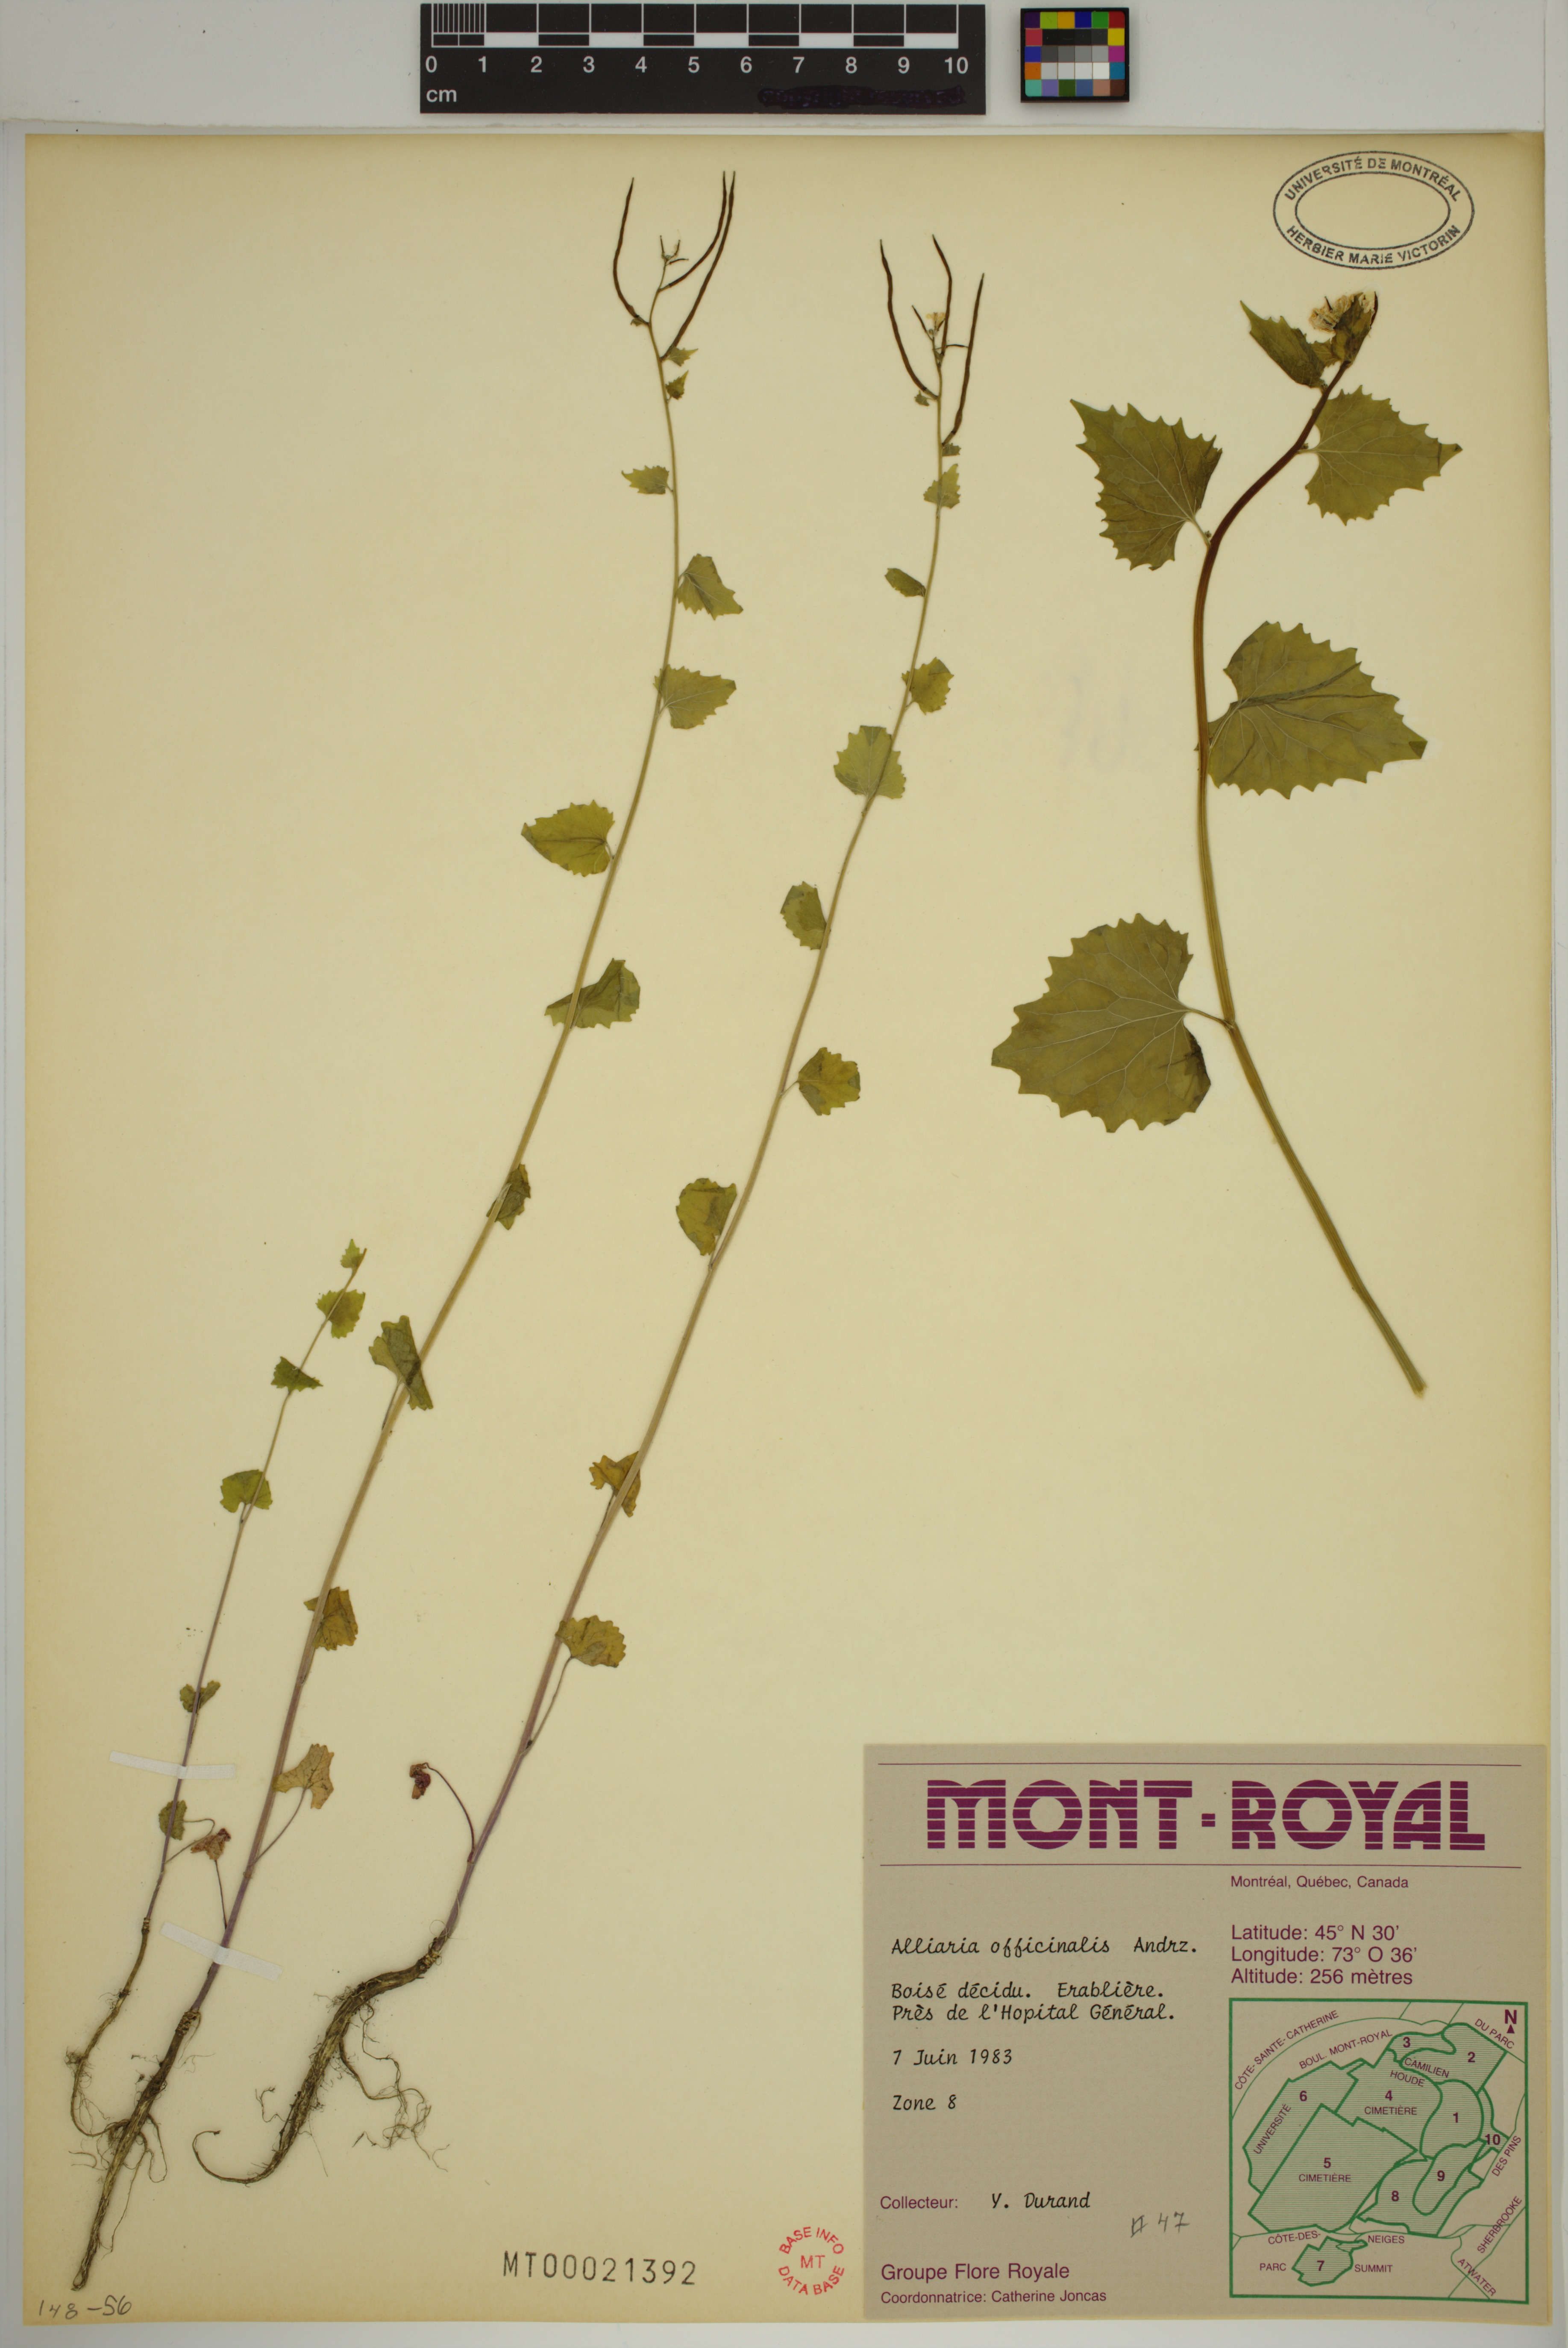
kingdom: Plantae
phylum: Tracheophyta
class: Magnoliopsida
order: Brassicales
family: Brassicaceae
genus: Alliaria
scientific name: Alliaria petiolata
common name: Garlic mustard
